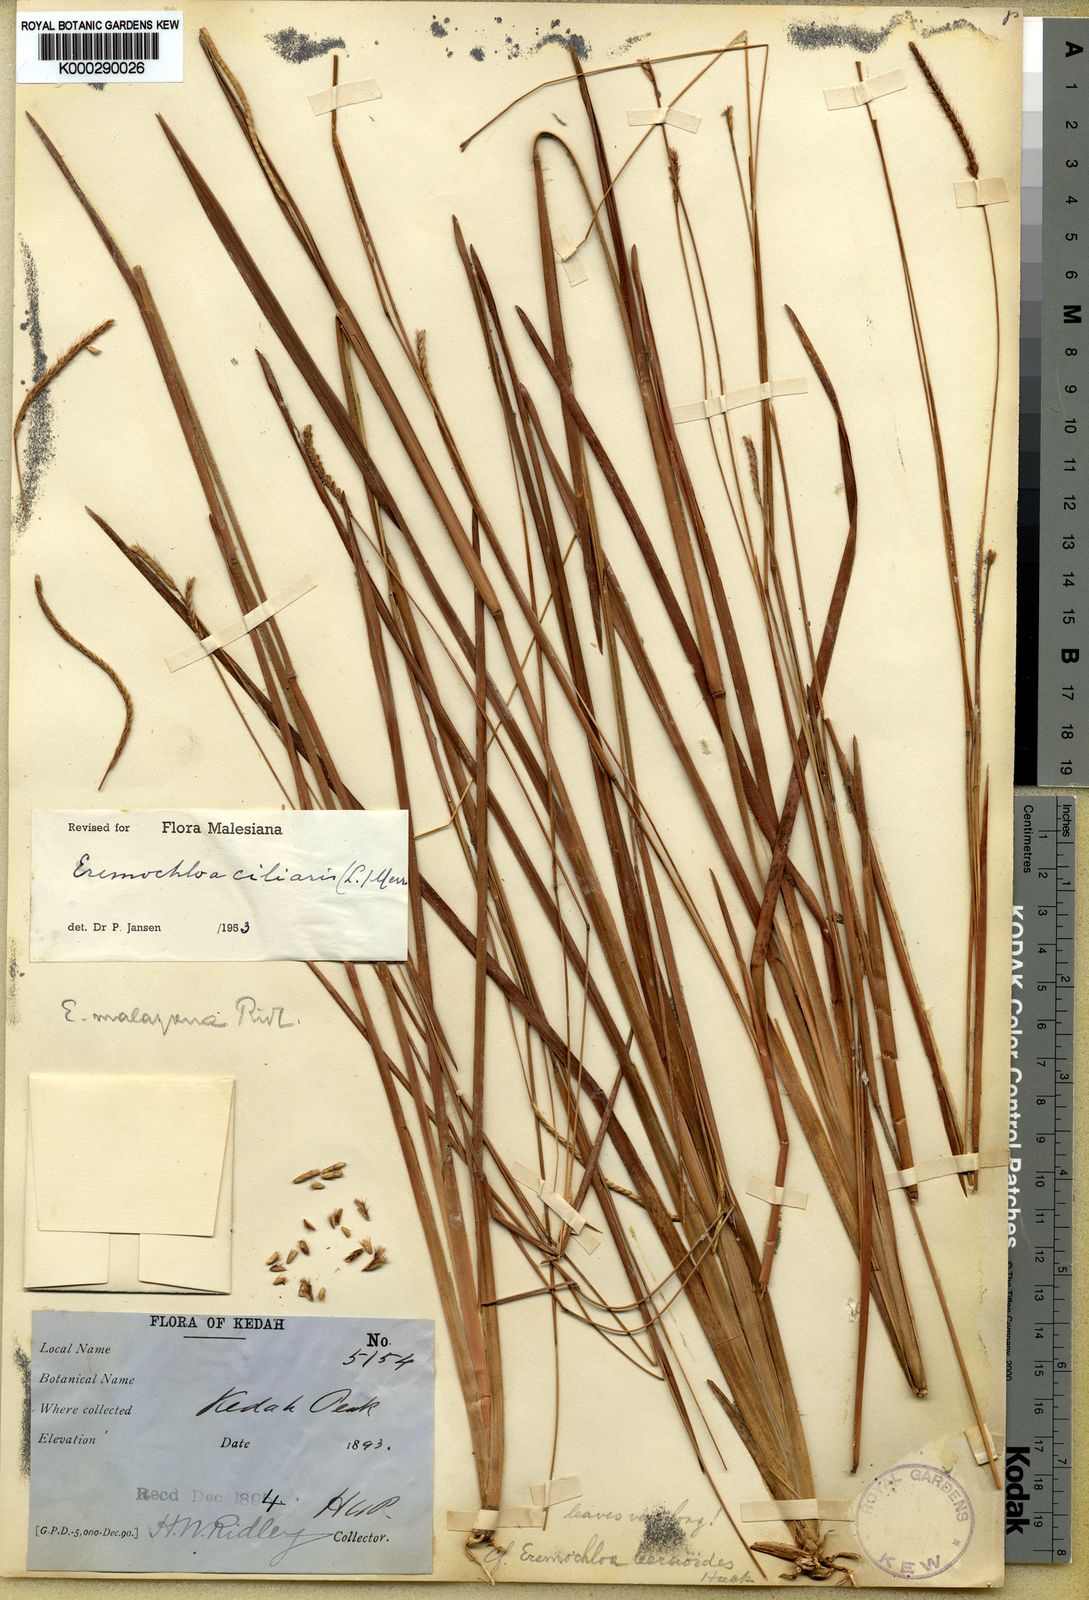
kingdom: Plantae
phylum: Tracheophyta
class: Liliopsida
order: Poales
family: Poaceae
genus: Eremochloa
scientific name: Eremochloa ciliaris
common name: Fringed centipede grass
